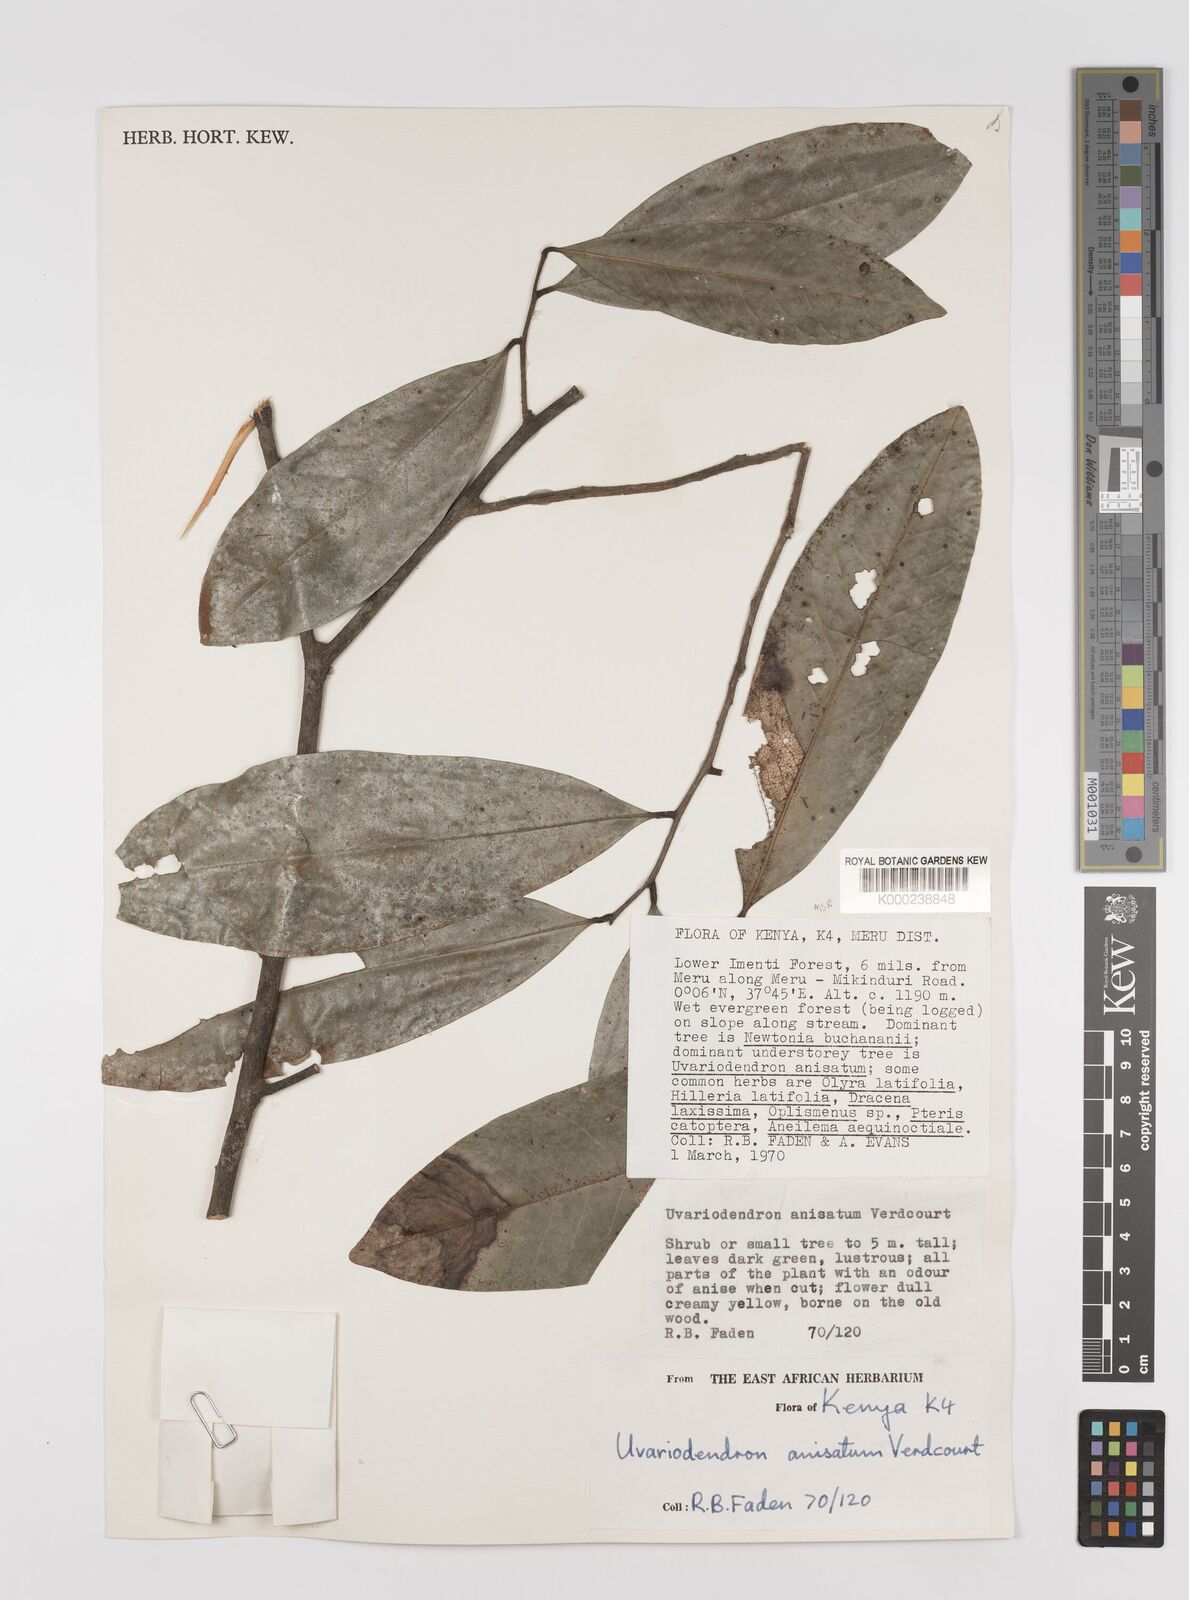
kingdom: Plantae
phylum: Tracheophyta
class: Magnoliopsida
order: Magnoliales
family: Annonaceae
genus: Uvariodendron
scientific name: Uvariodendron anisatum
